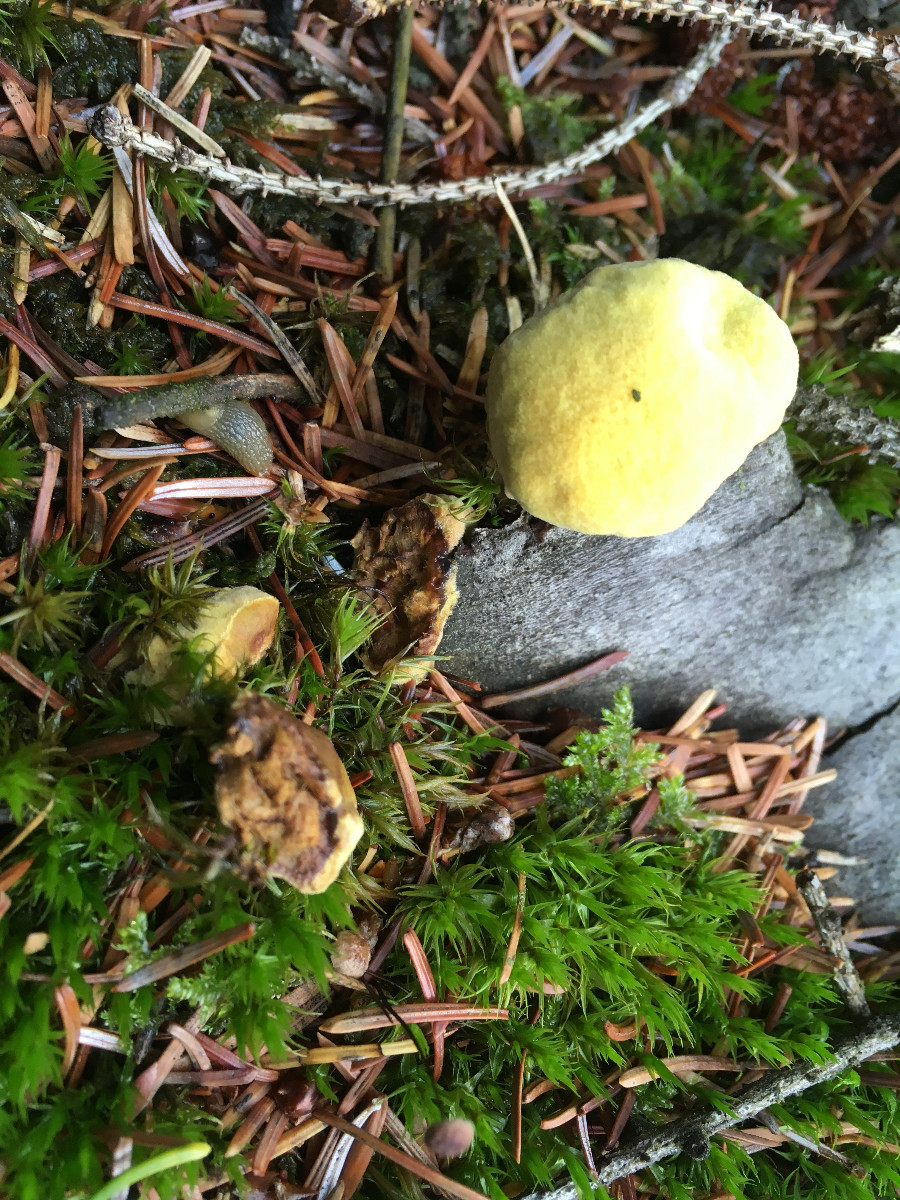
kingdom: Fungi
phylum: Basidiomycota
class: Agaricomycetes
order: Polyporales
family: Laetiporaceae
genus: Phaeolus
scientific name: Phaeolus schweinitzii
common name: brunporesvamp
